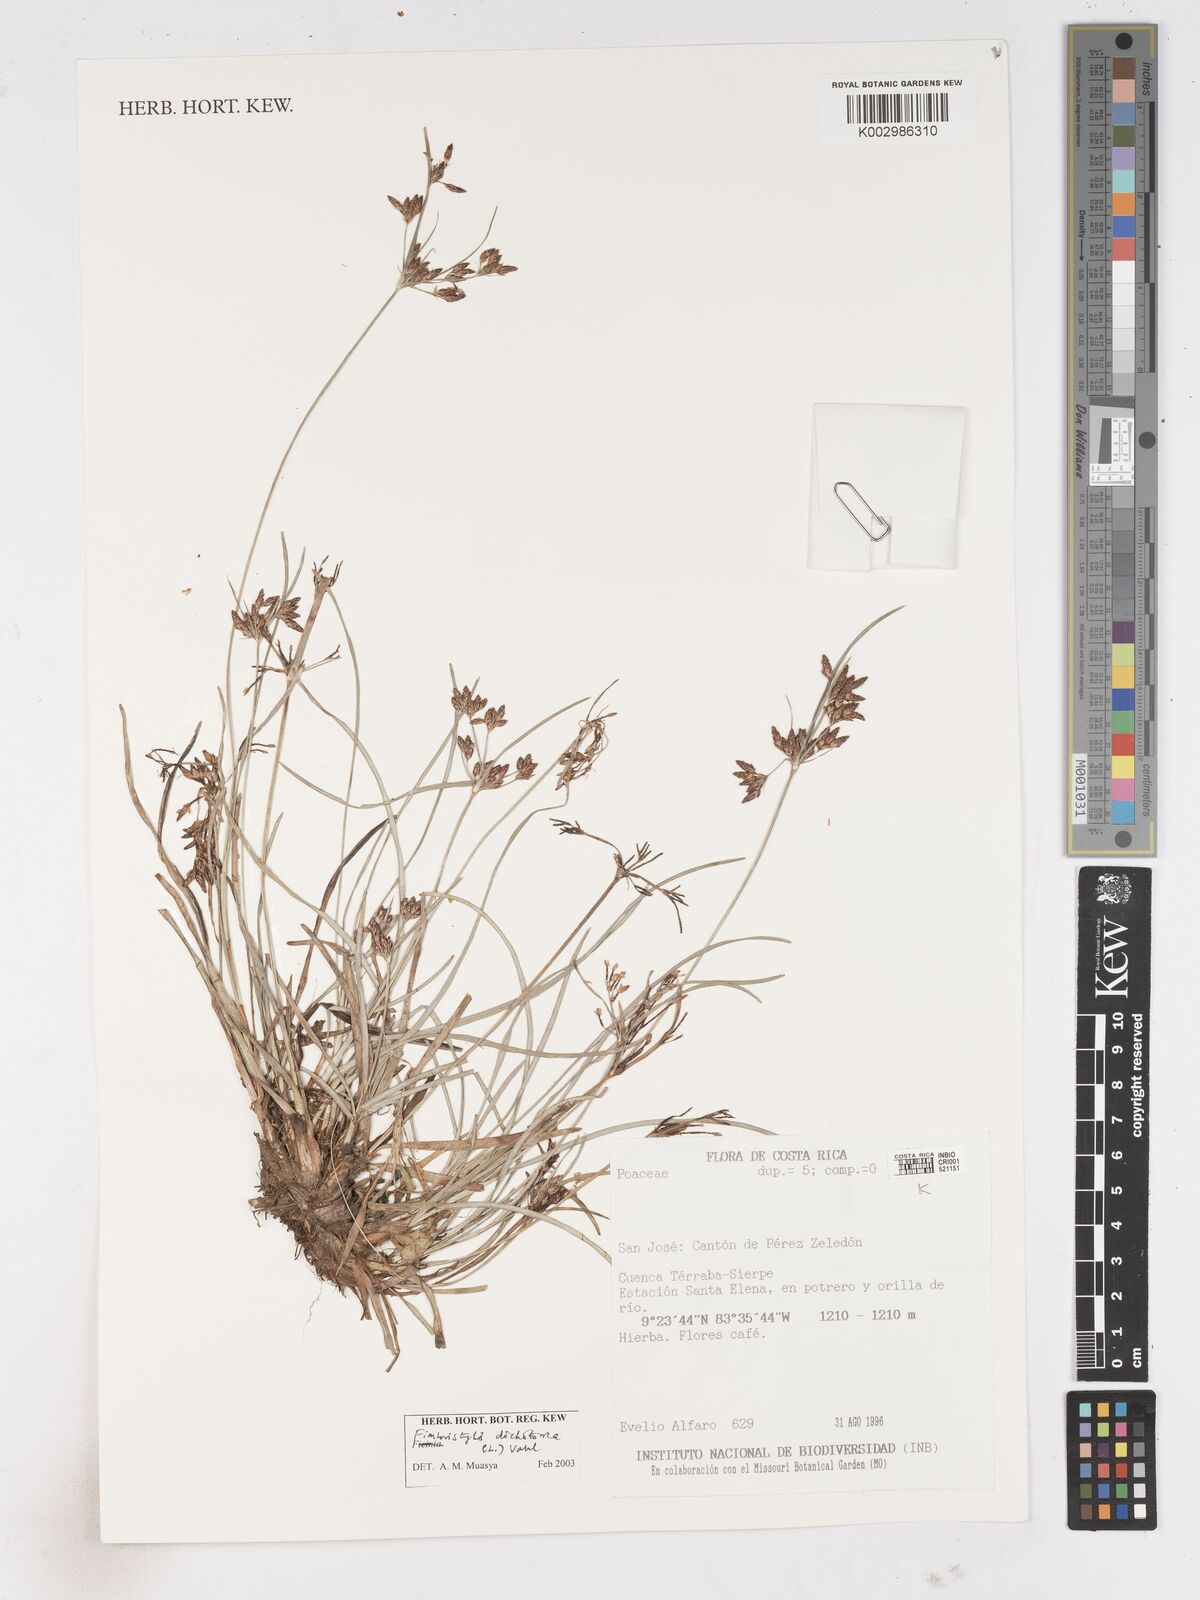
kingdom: Plantae
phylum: Tracheophyta
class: Liliopsida
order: Poales
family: Cyperaceae
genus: Fimbristylis
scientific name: Fimbristylis dichotoma
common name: Forked fimbry
